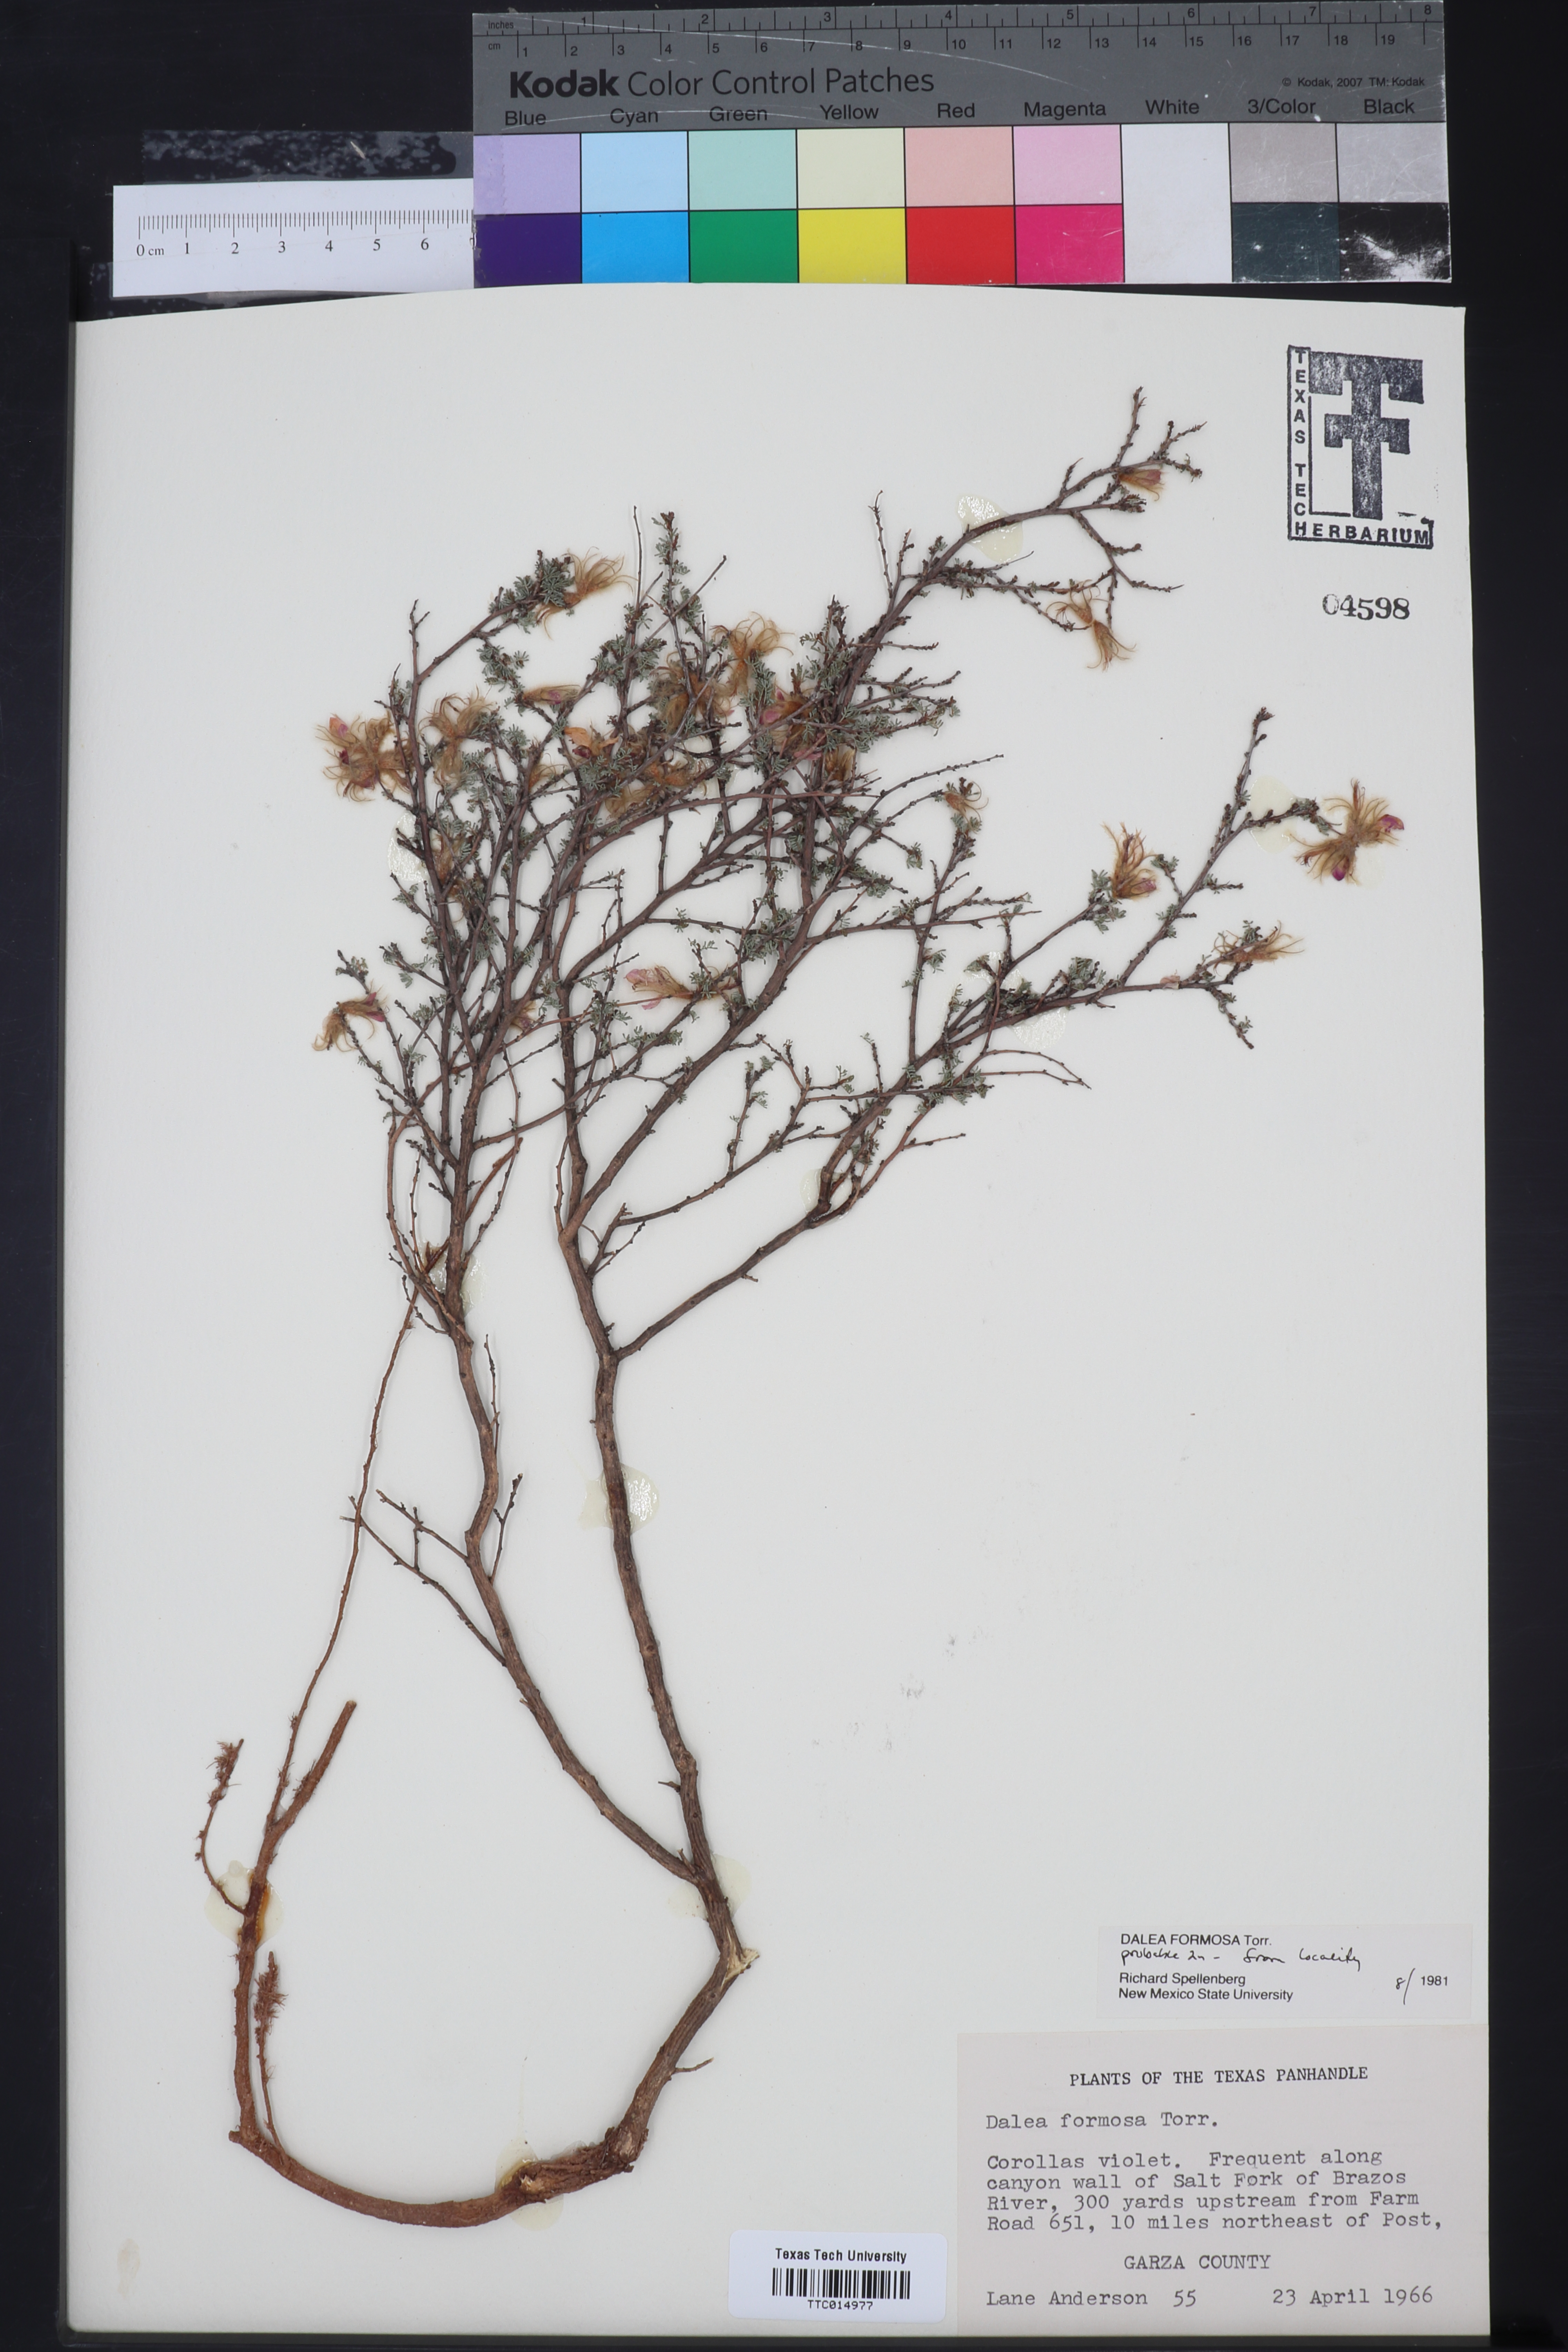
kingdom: Plantae
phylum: Tracheophyta
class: Magnoliopsida
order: Fabales
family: Fabaceae
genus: Dalea
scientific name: Dalea formosa
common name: Feather-plume dalea
